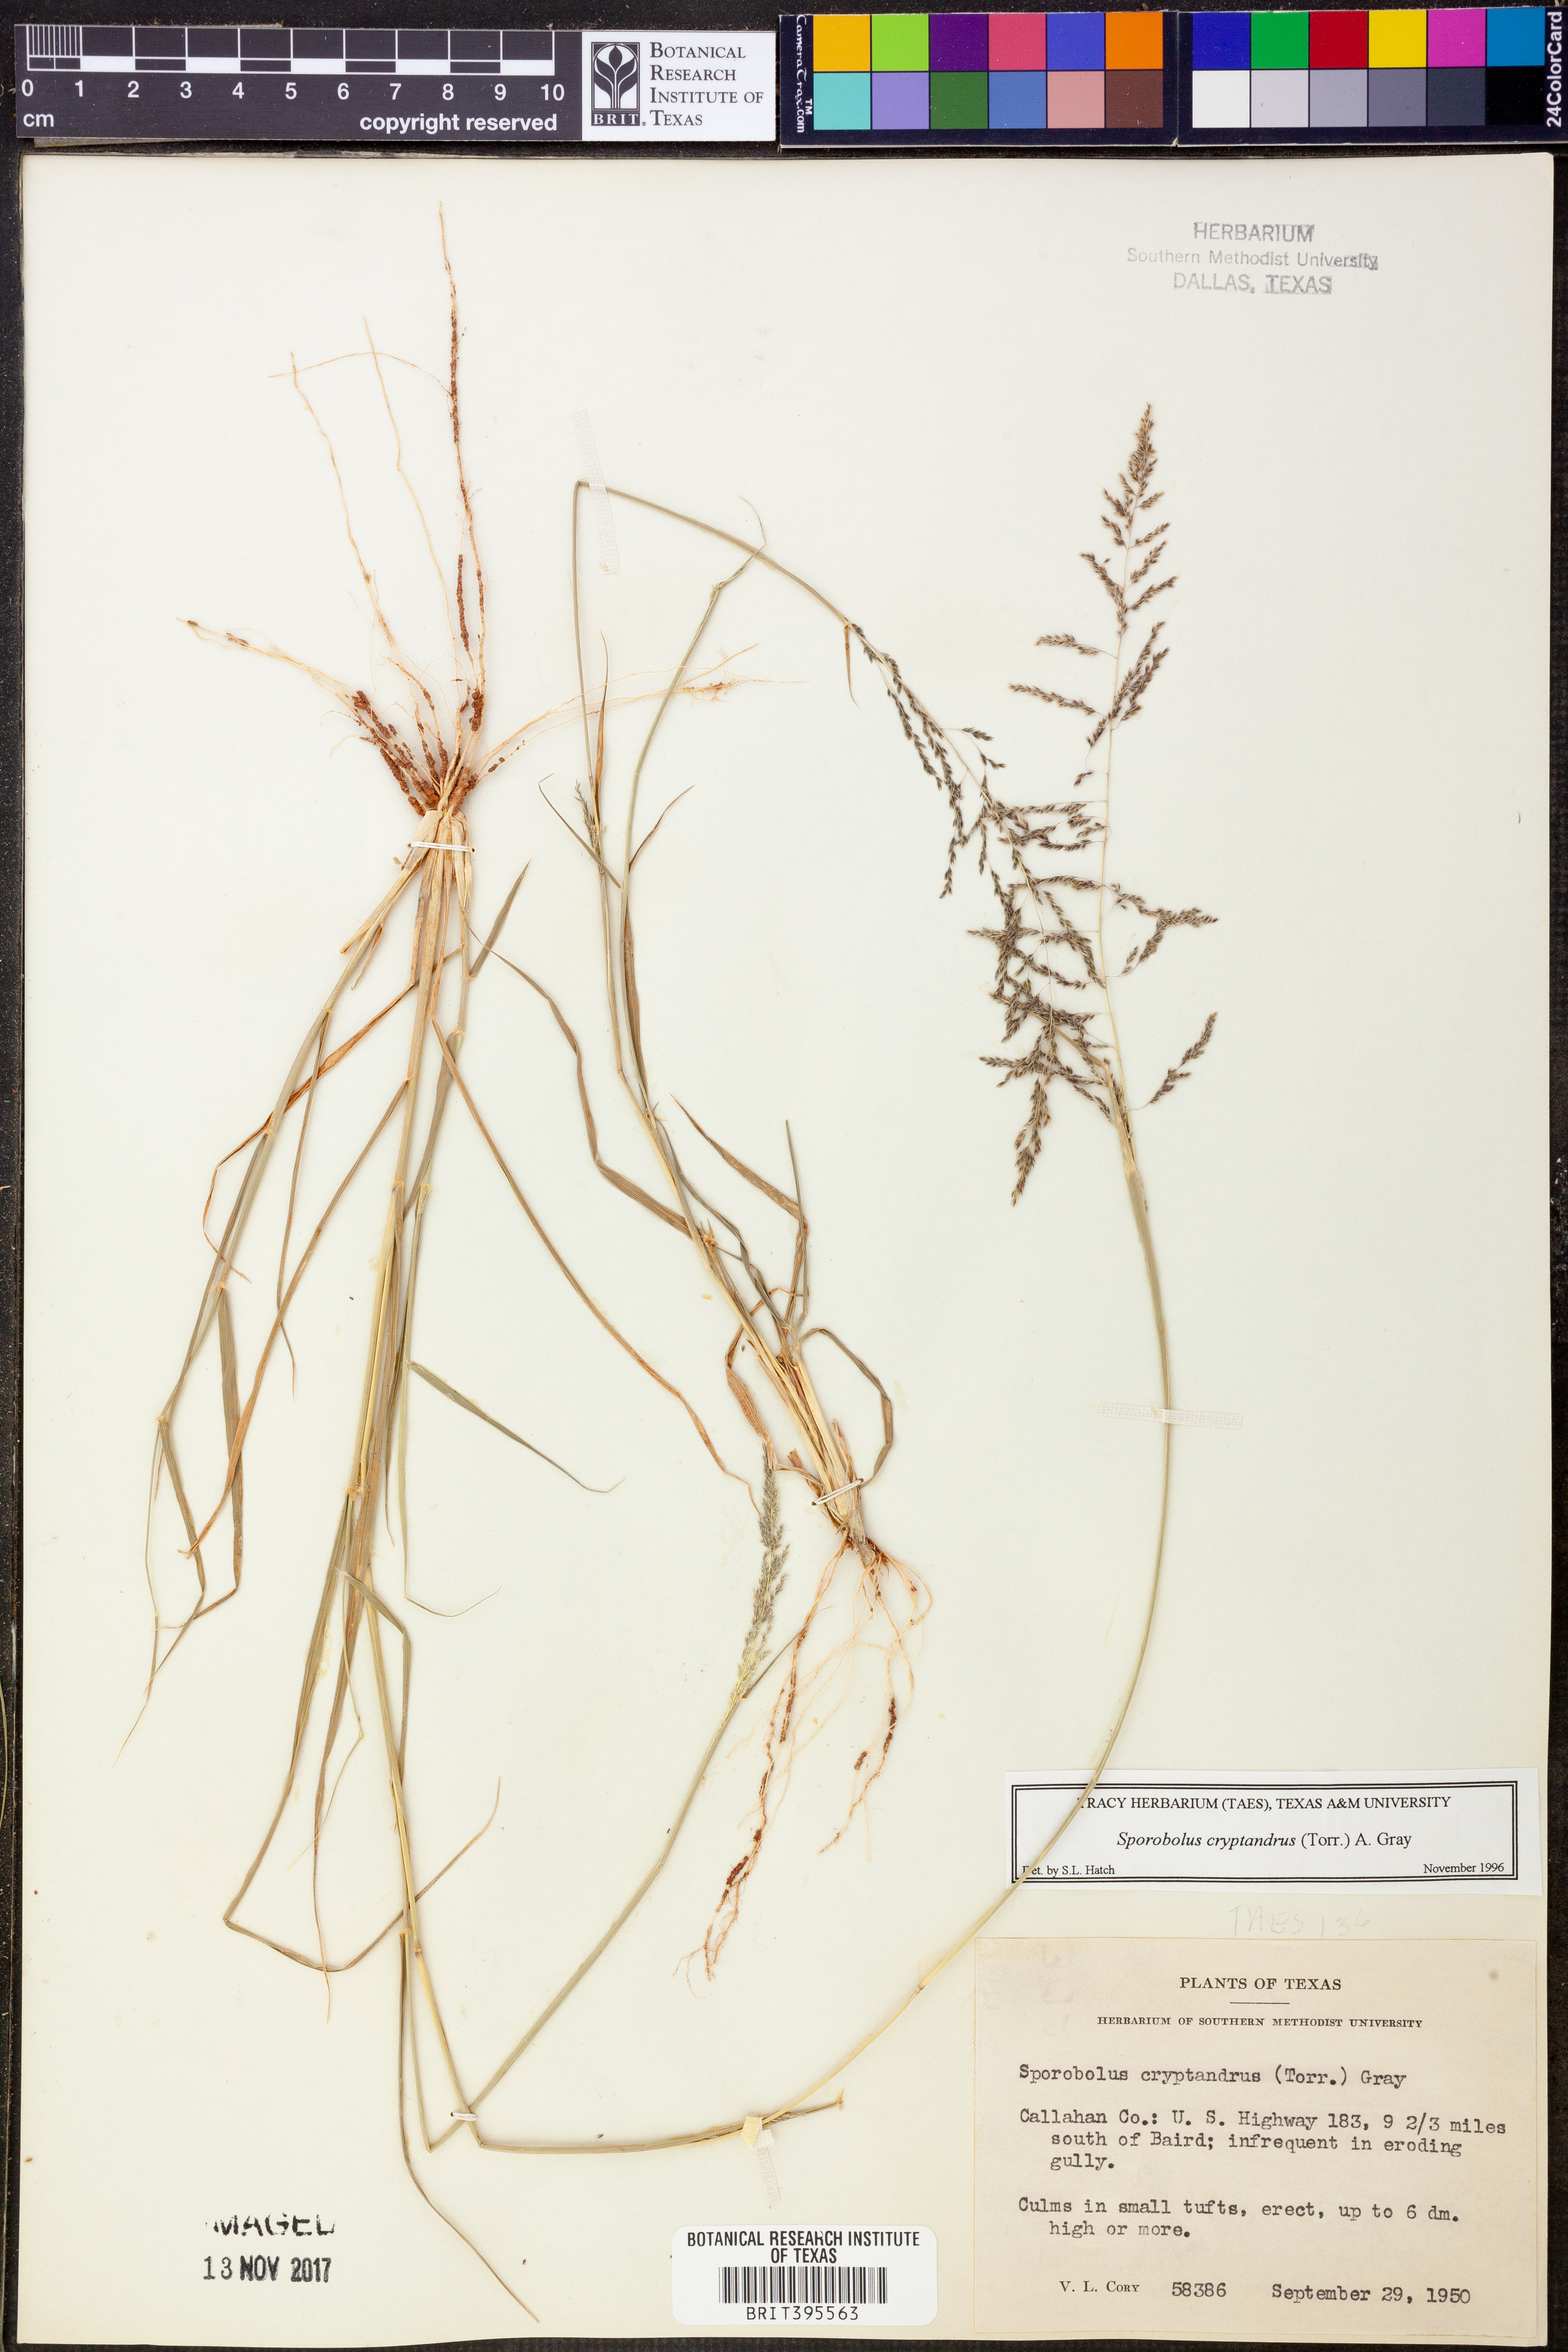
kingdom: Plantae
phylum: Tracheophyta
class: Liliopsida
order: Poales
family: Poaceae
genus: Sporobolus
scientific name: Sporobolus cryptandrus
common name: Sand dropseed
